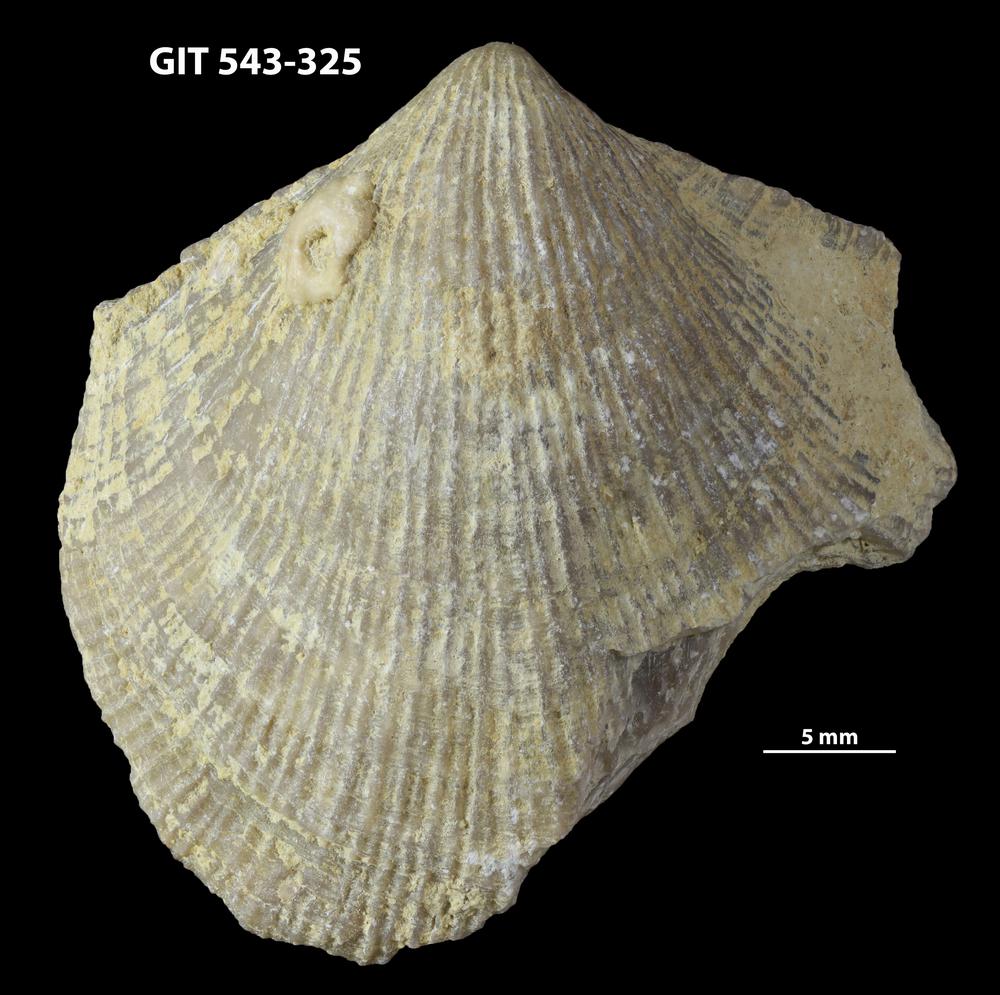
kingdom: Animalia
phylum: Brachiopoda
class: Rhynchonellata
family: Clitambonitidae
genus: Vellamo
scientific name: Vellamo Orthis verneuili
